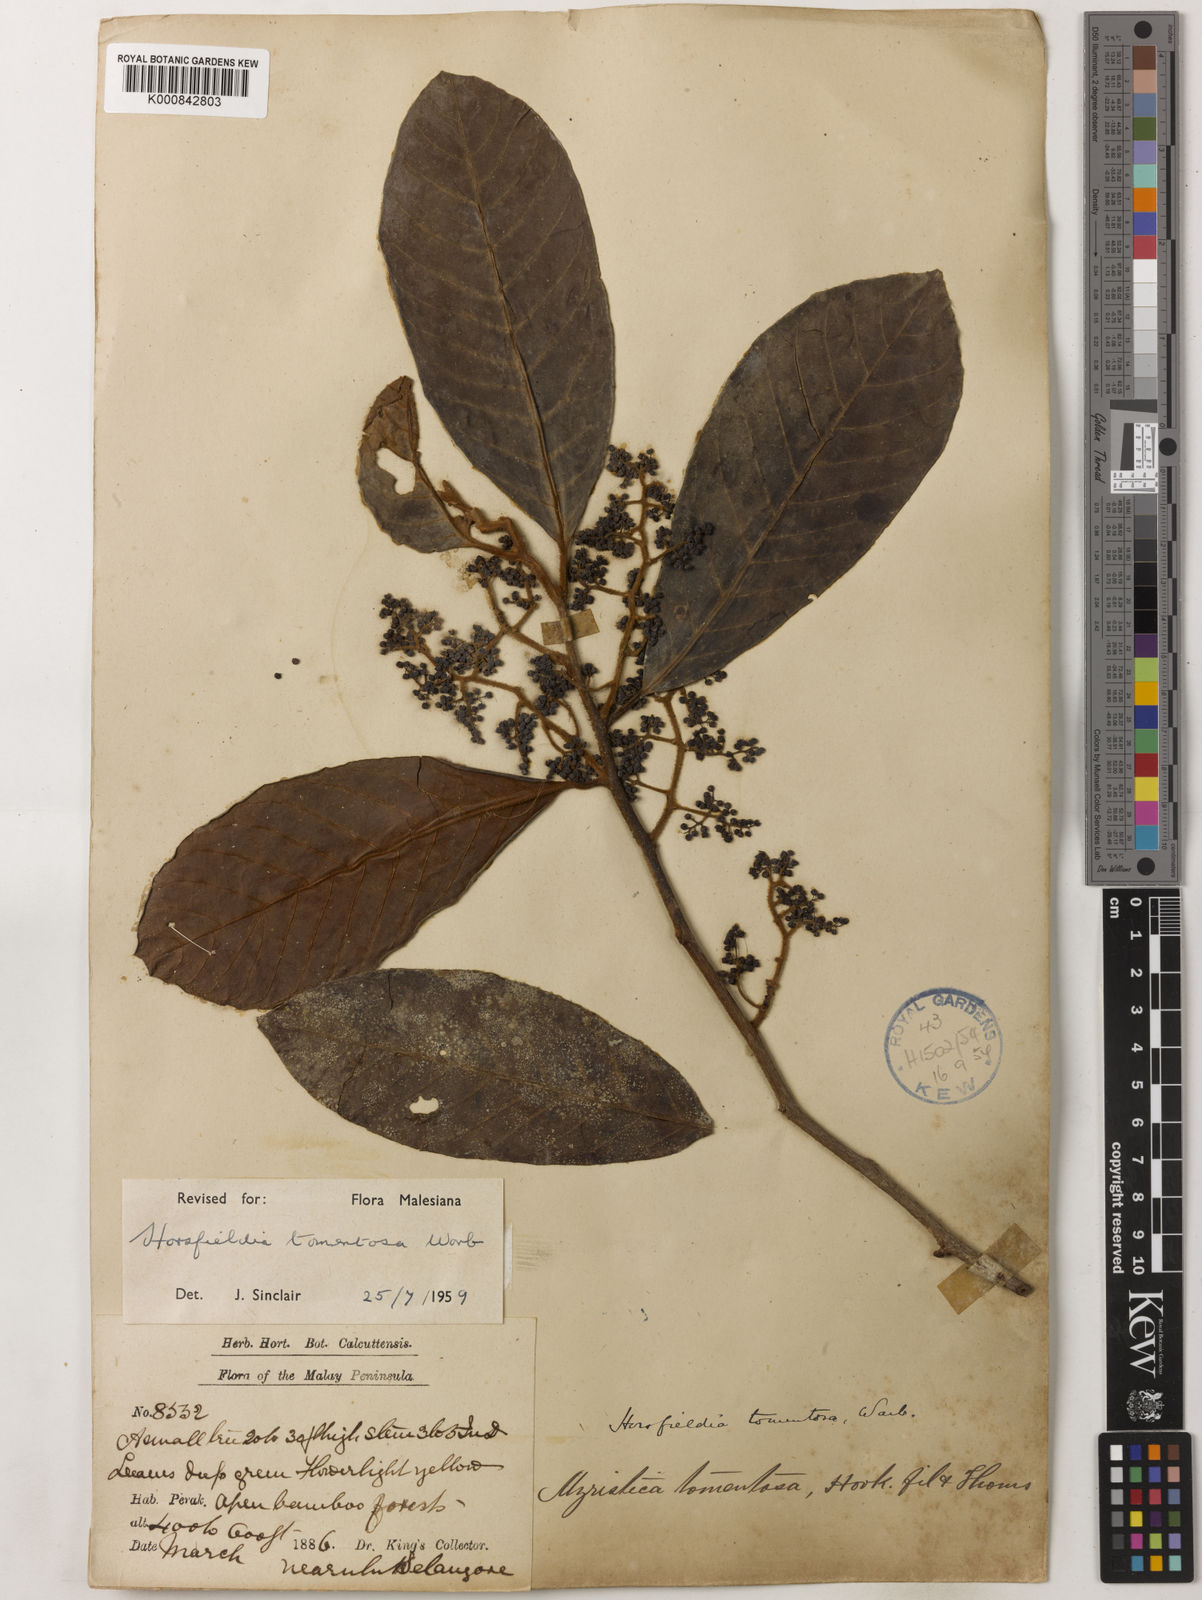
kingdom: Plantae
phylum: Tracheophyta
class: Magnoliopsida
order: Magnoliales
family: Myristicaceae
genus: Horsfieldia
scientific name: Horsfieldia tomentosa
